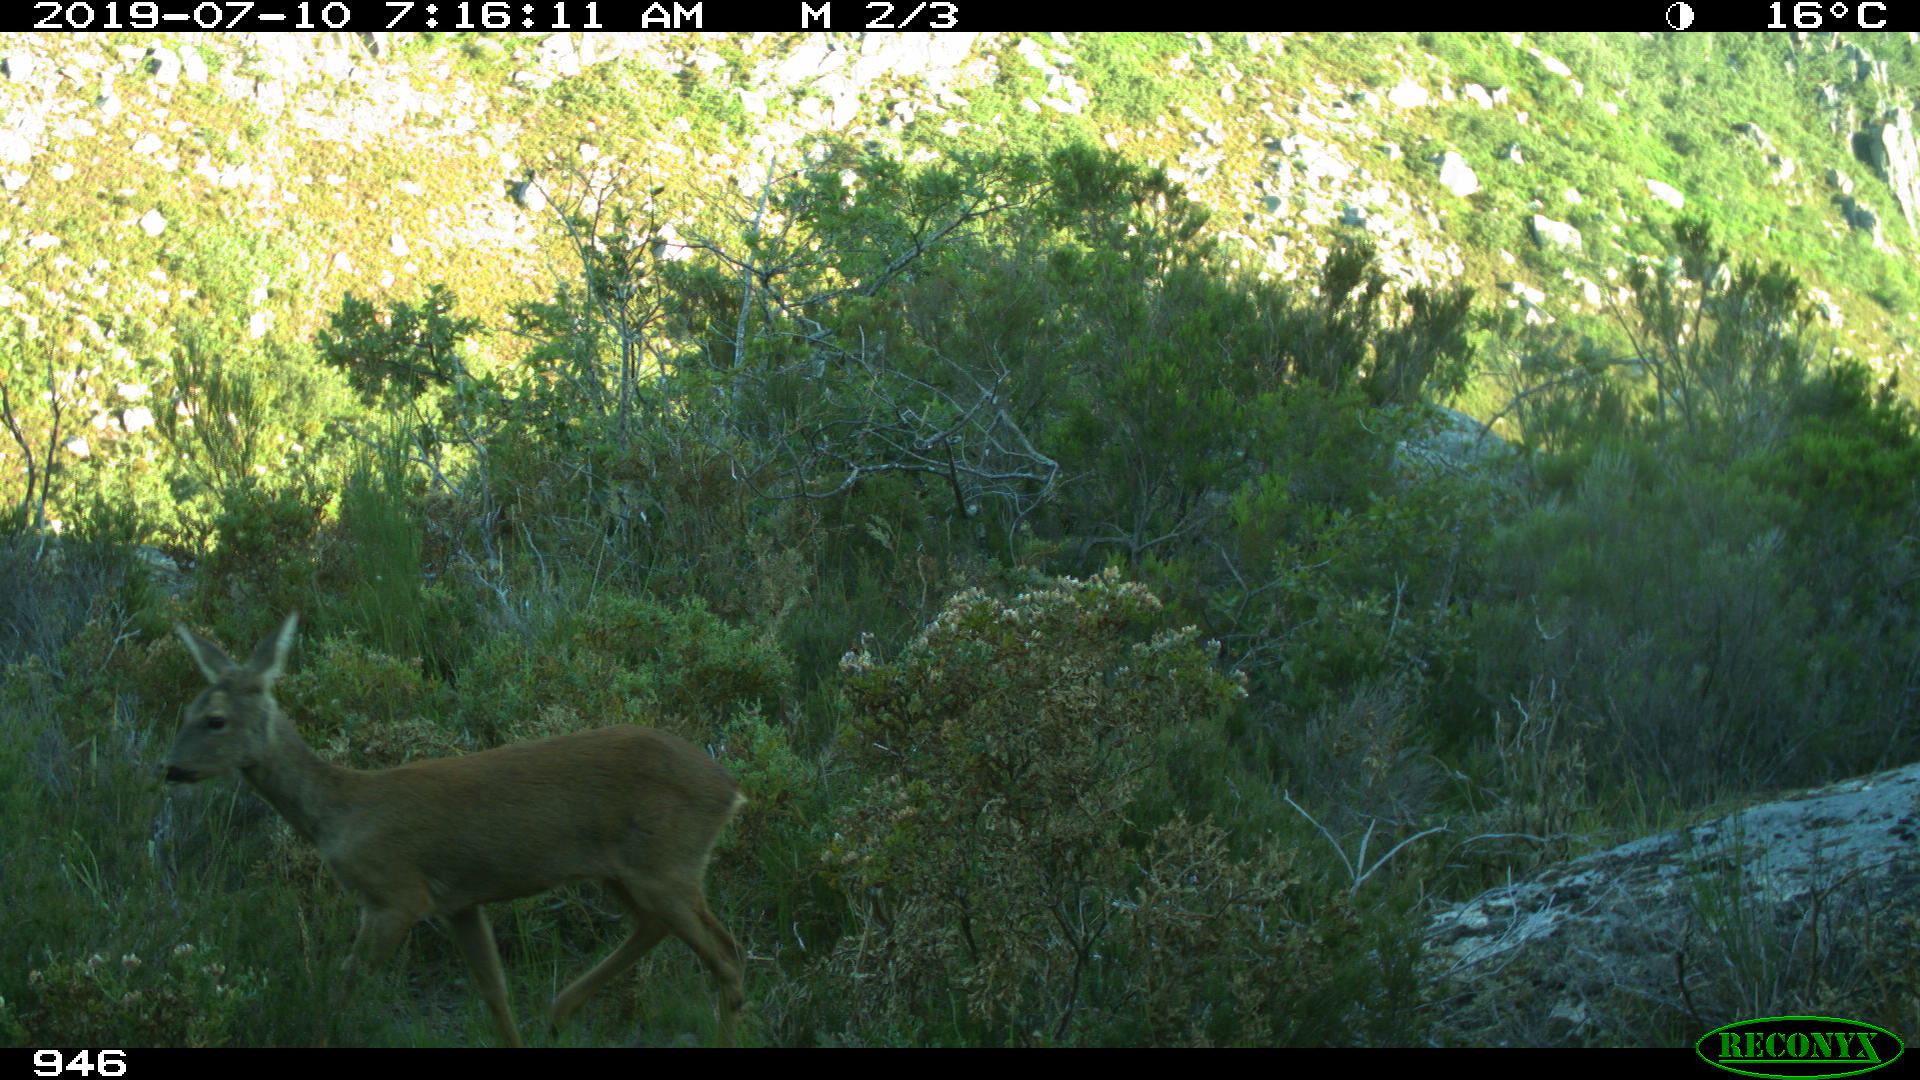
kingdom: Animalia
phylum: Chordata
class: Mammalia
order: Artiodactyla
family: Cervidae
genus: Capreolus
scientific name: Capreolus capreolus
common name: Western roe deer
